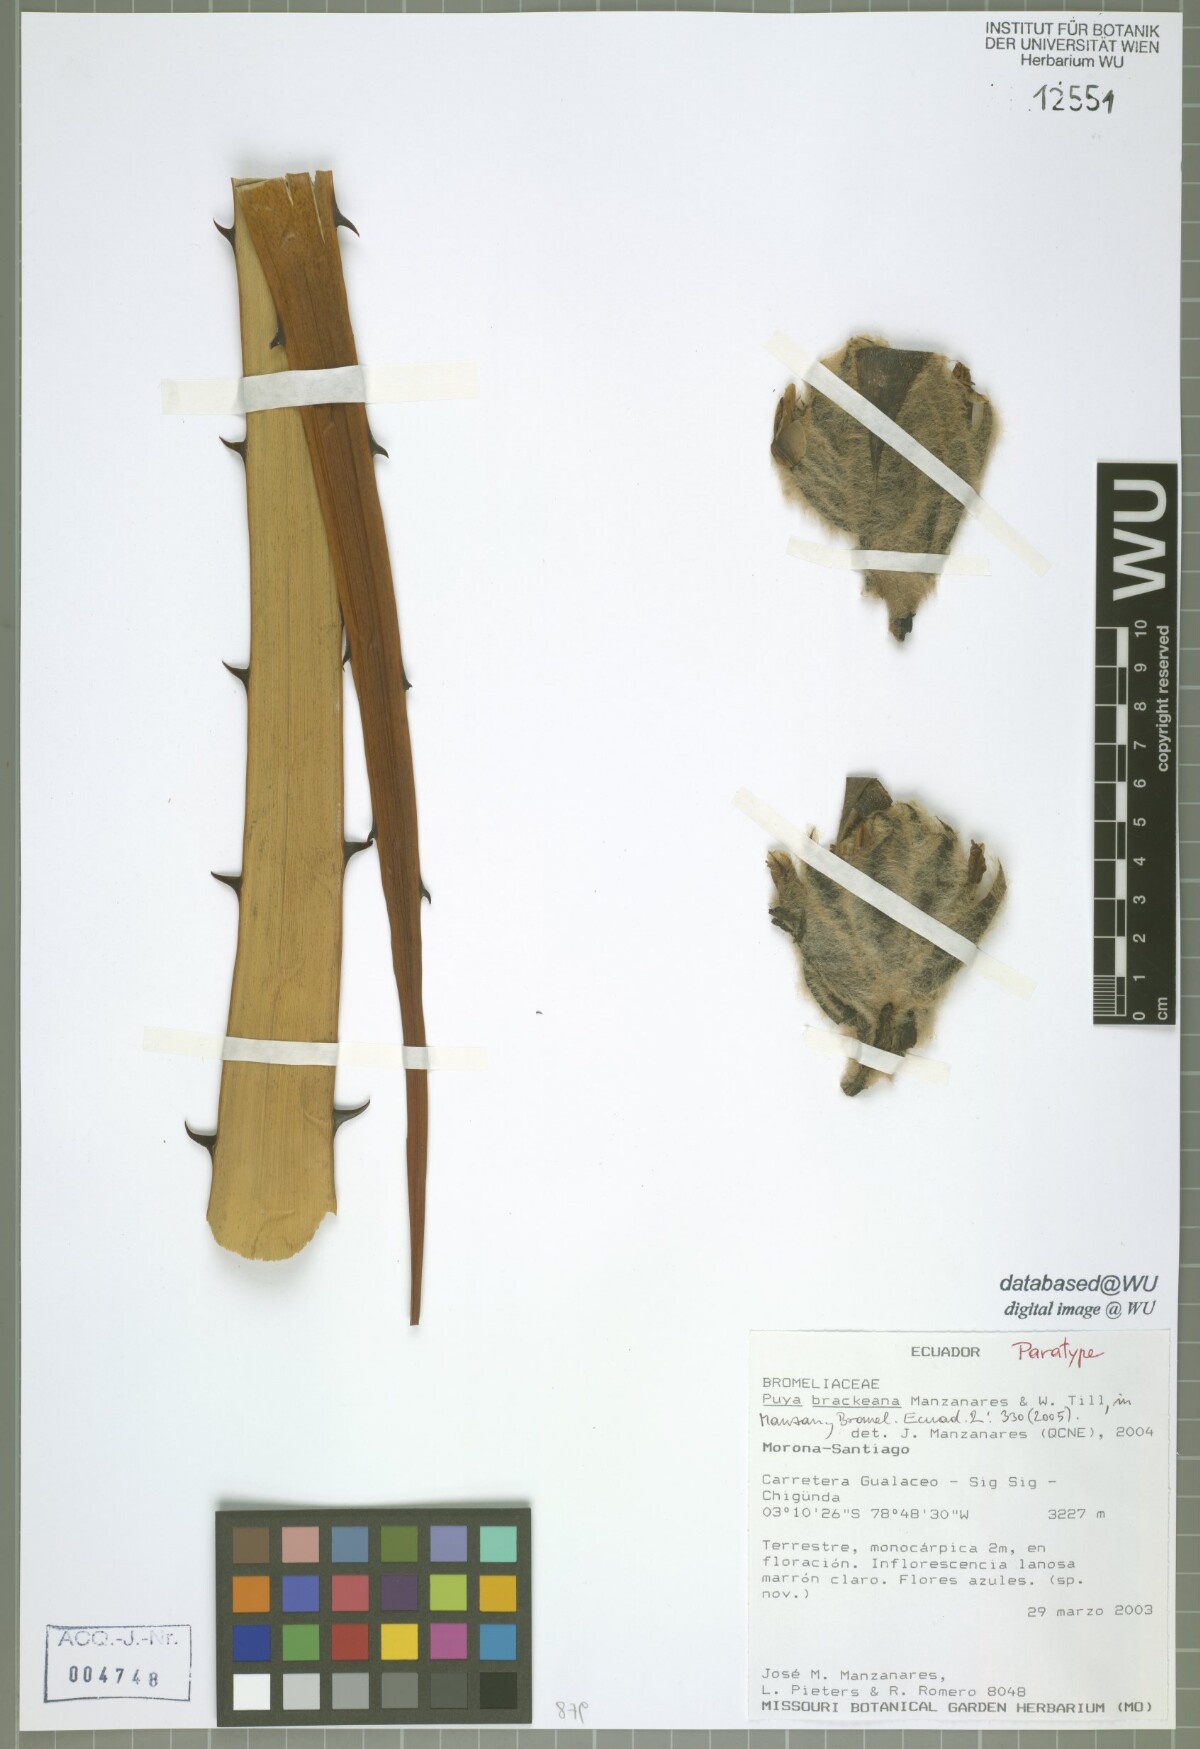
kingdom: Plantae
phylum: Tracheophyta
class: Liliopsida
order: Poales
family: Bromeliaceae
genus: Puya
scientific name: Puya brackeana
